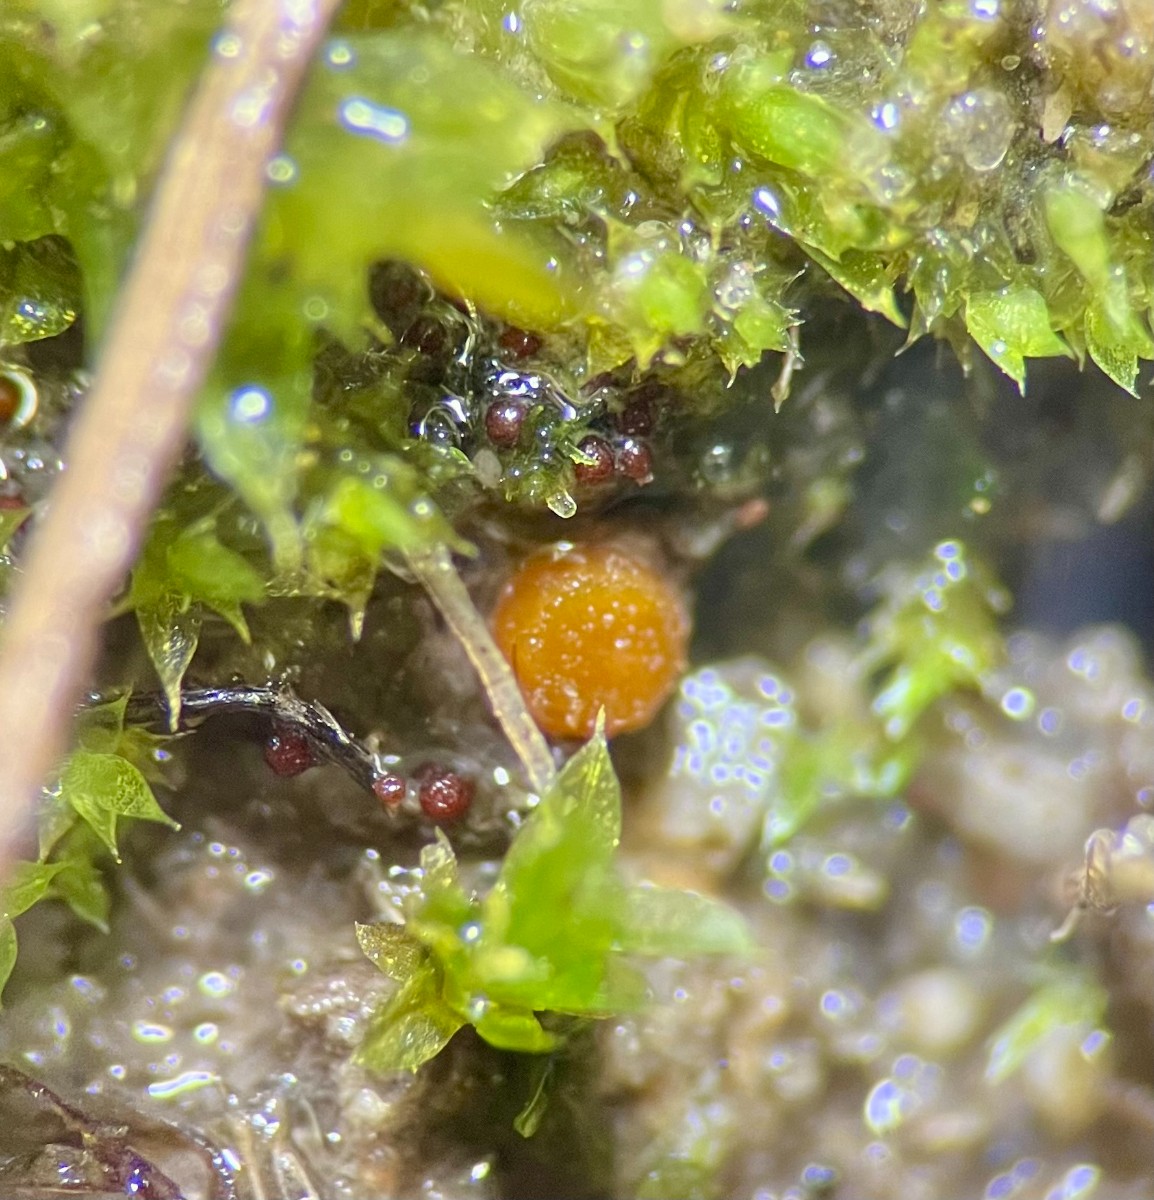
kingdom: Fungi
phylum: Ascomycota
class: Pezizomycetes
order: Pezizales
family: Pyronemataceae
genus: Lamprospora
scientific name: Lamprospora minuta
